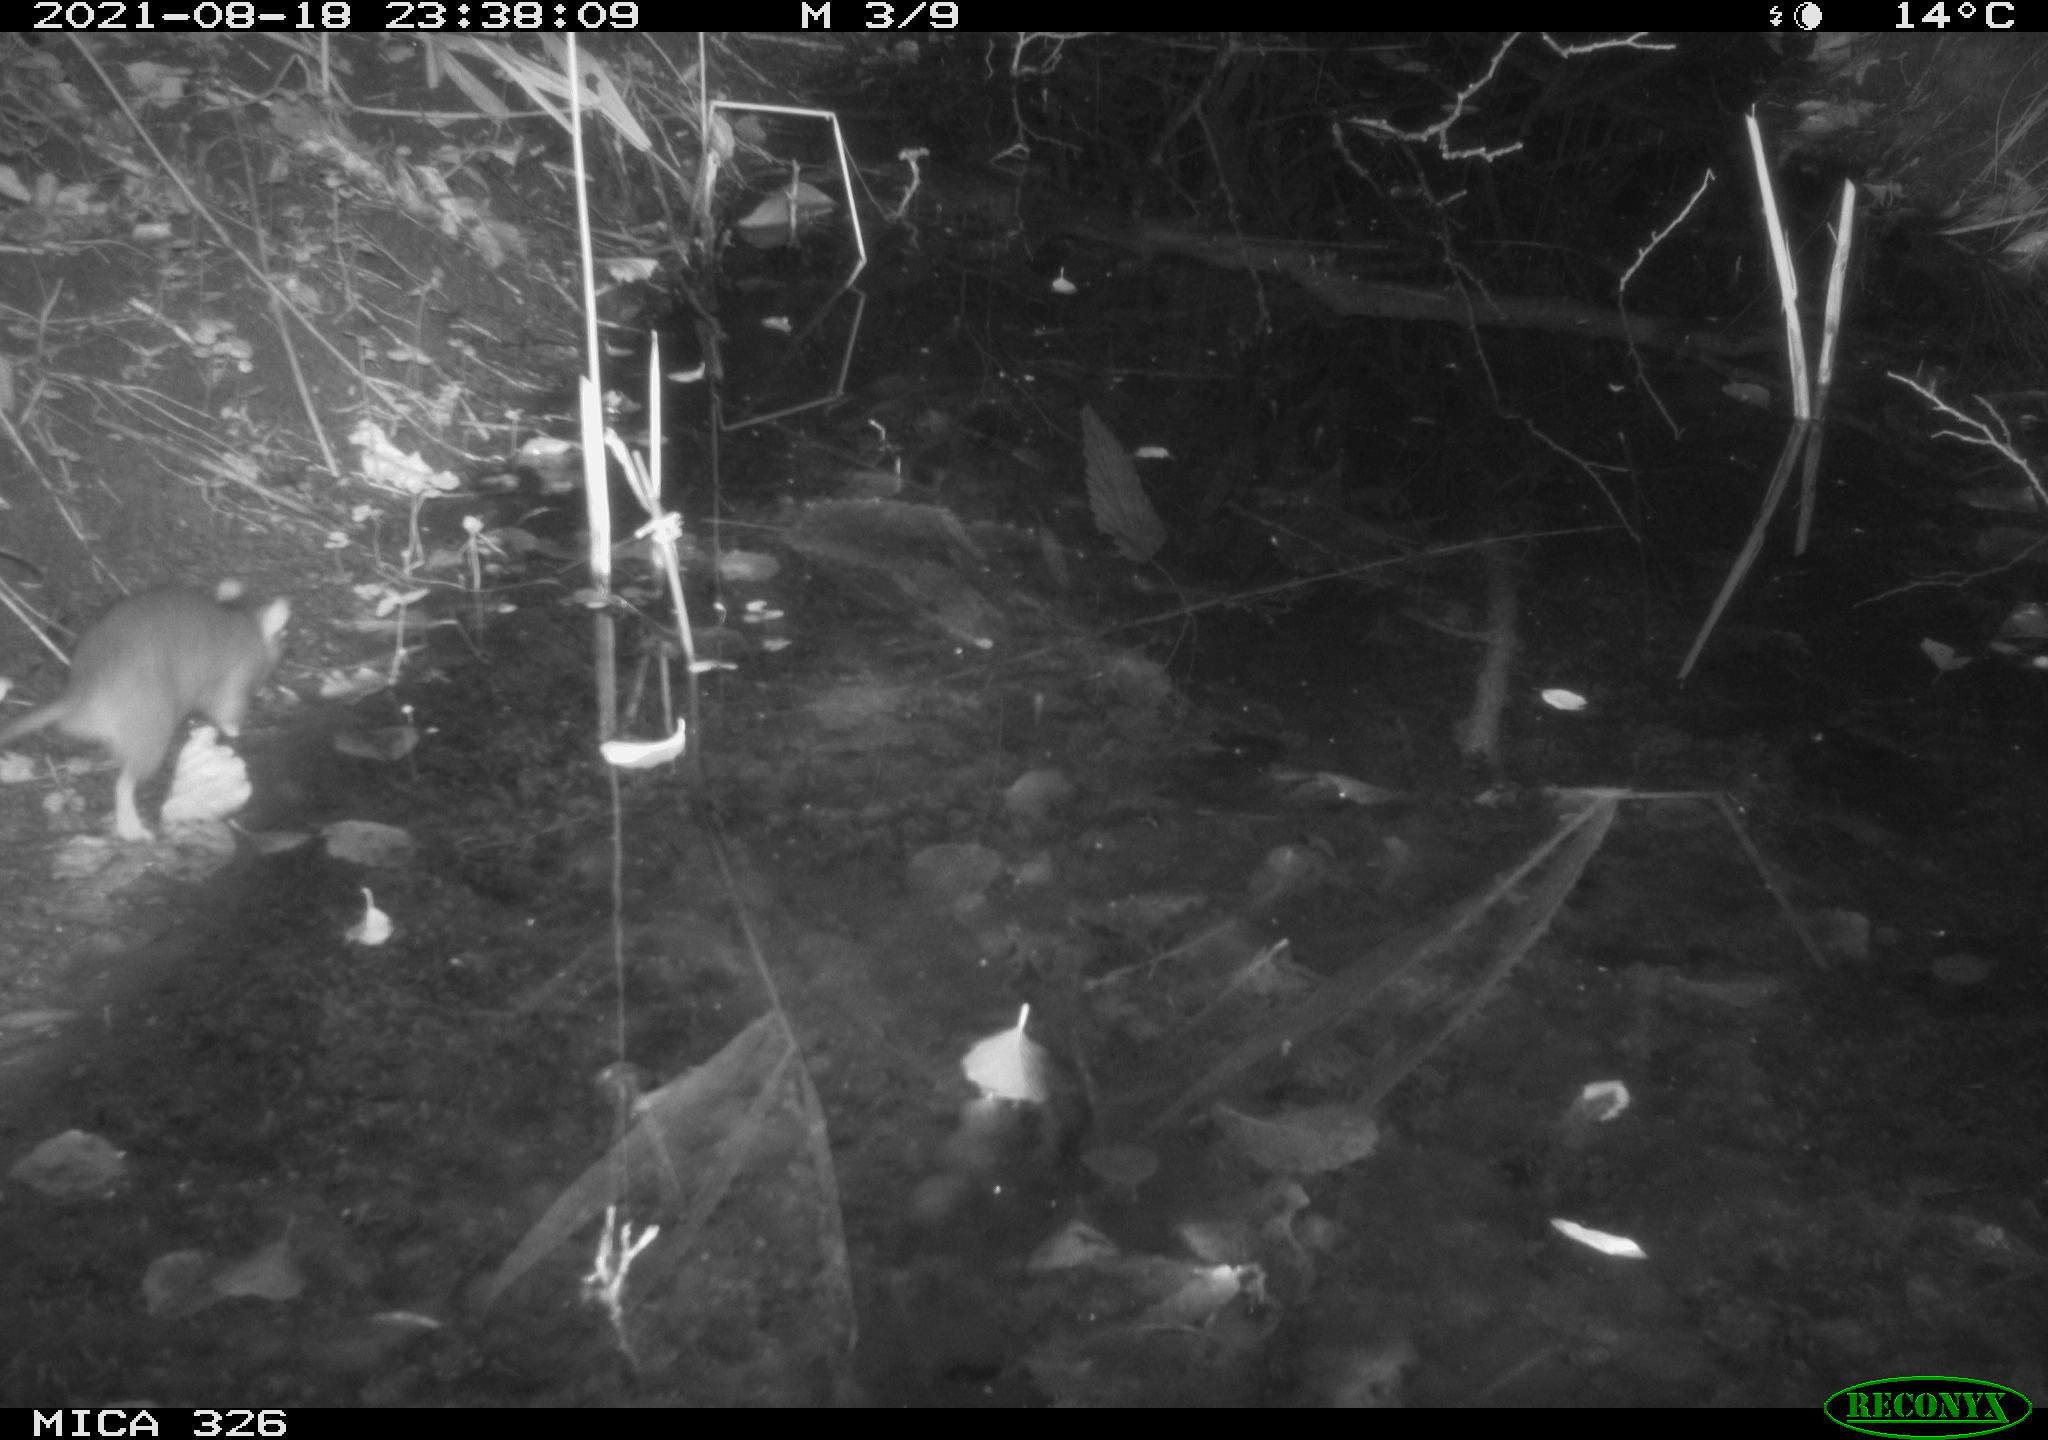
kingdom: Animalia
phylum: Chordata
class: Mammalia
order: Rodentia
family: Muridae
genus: Rattus
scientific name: Rattus norvegicus
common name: Brown rat
